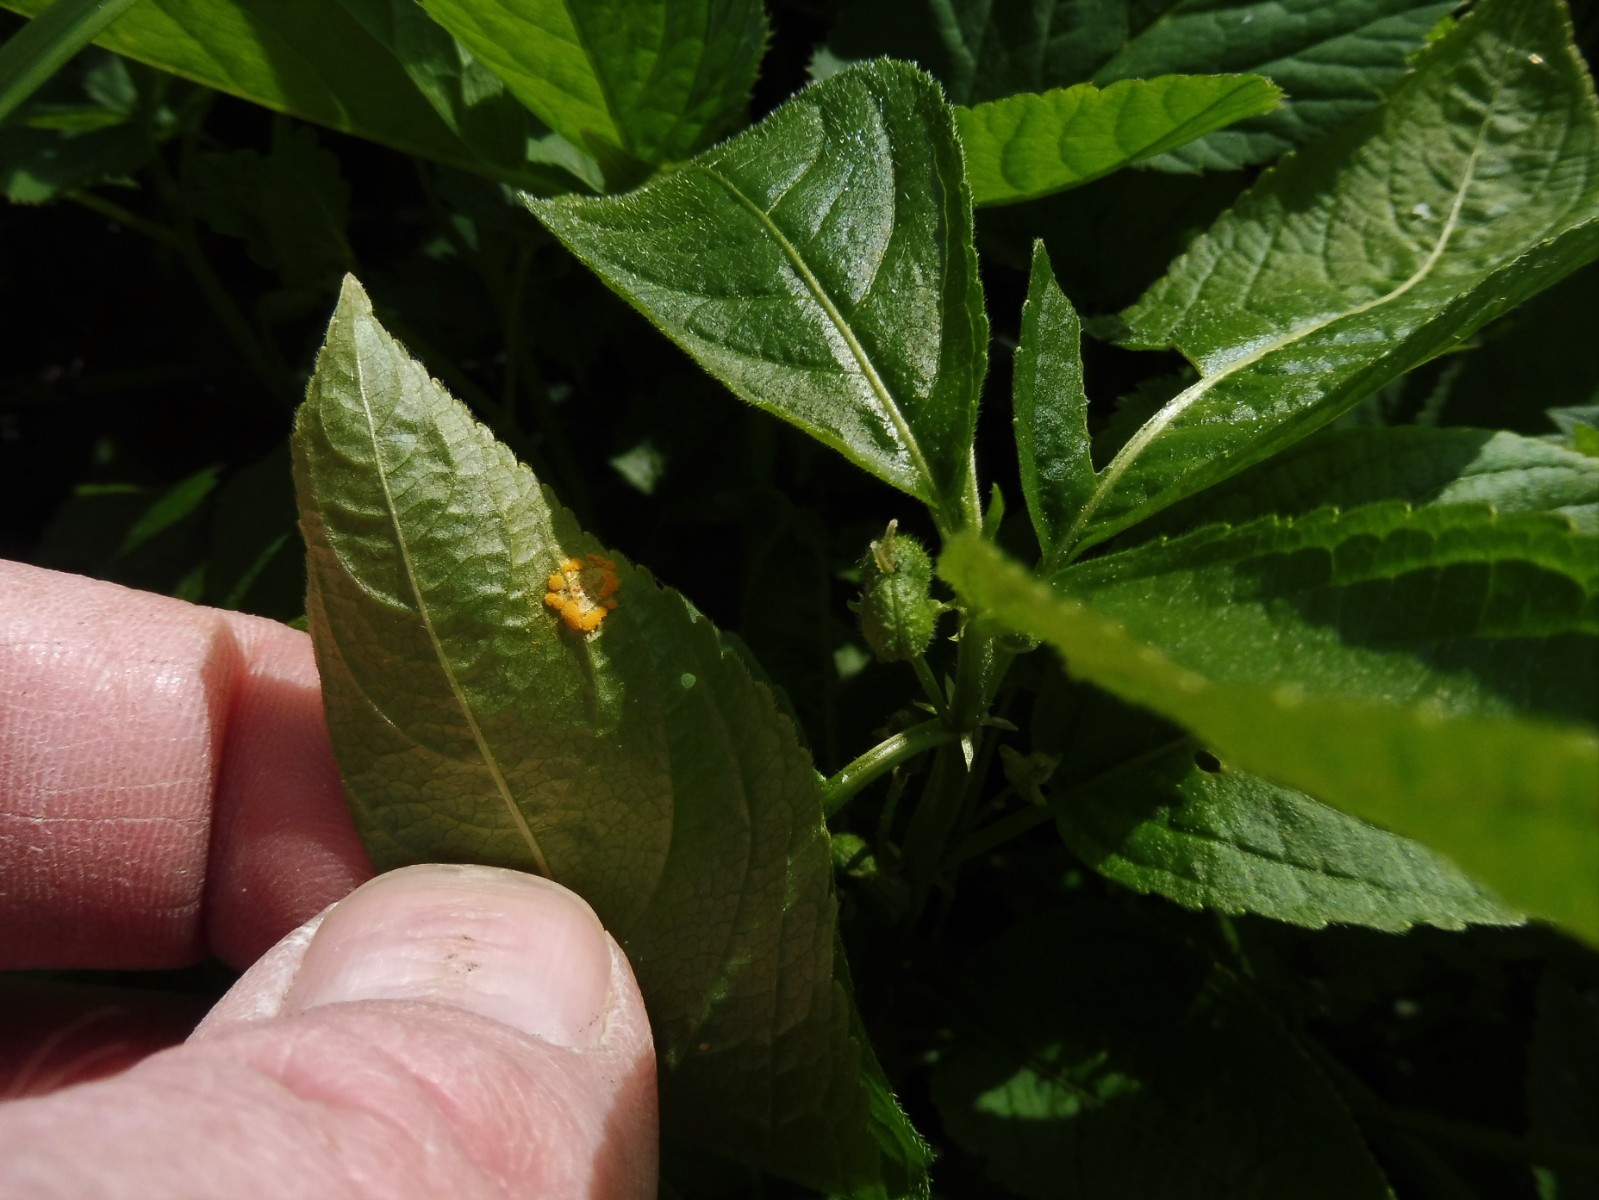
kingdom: Fungi
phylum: Basidiomycota
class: Pucciniomycetes
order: Pucciniales
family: Melampsoraceae
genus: Melampsora
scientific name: Melampsora populnea
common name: poppel-skorperust
